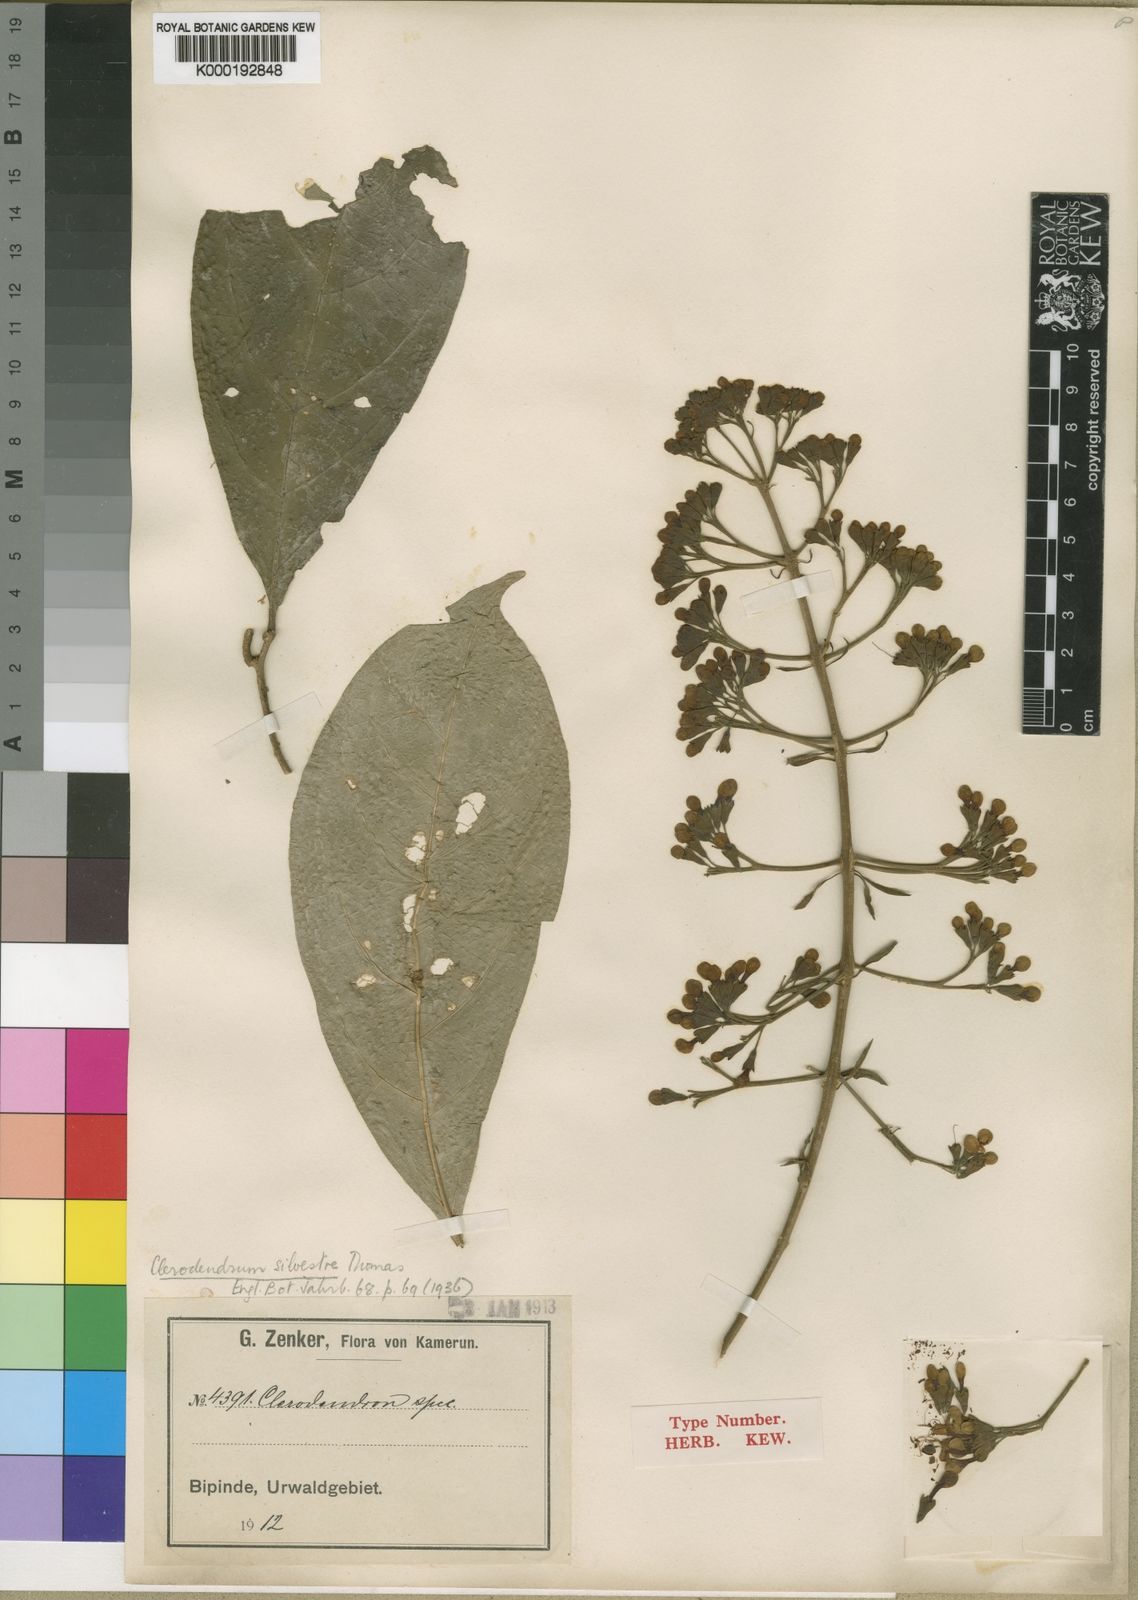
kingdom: Plantae
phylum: Tracheophyta
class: Magnoliopsida
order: Lamiales
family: Lamiaceae
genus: Clerodendrum
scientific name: Clerodendrum silvestre
